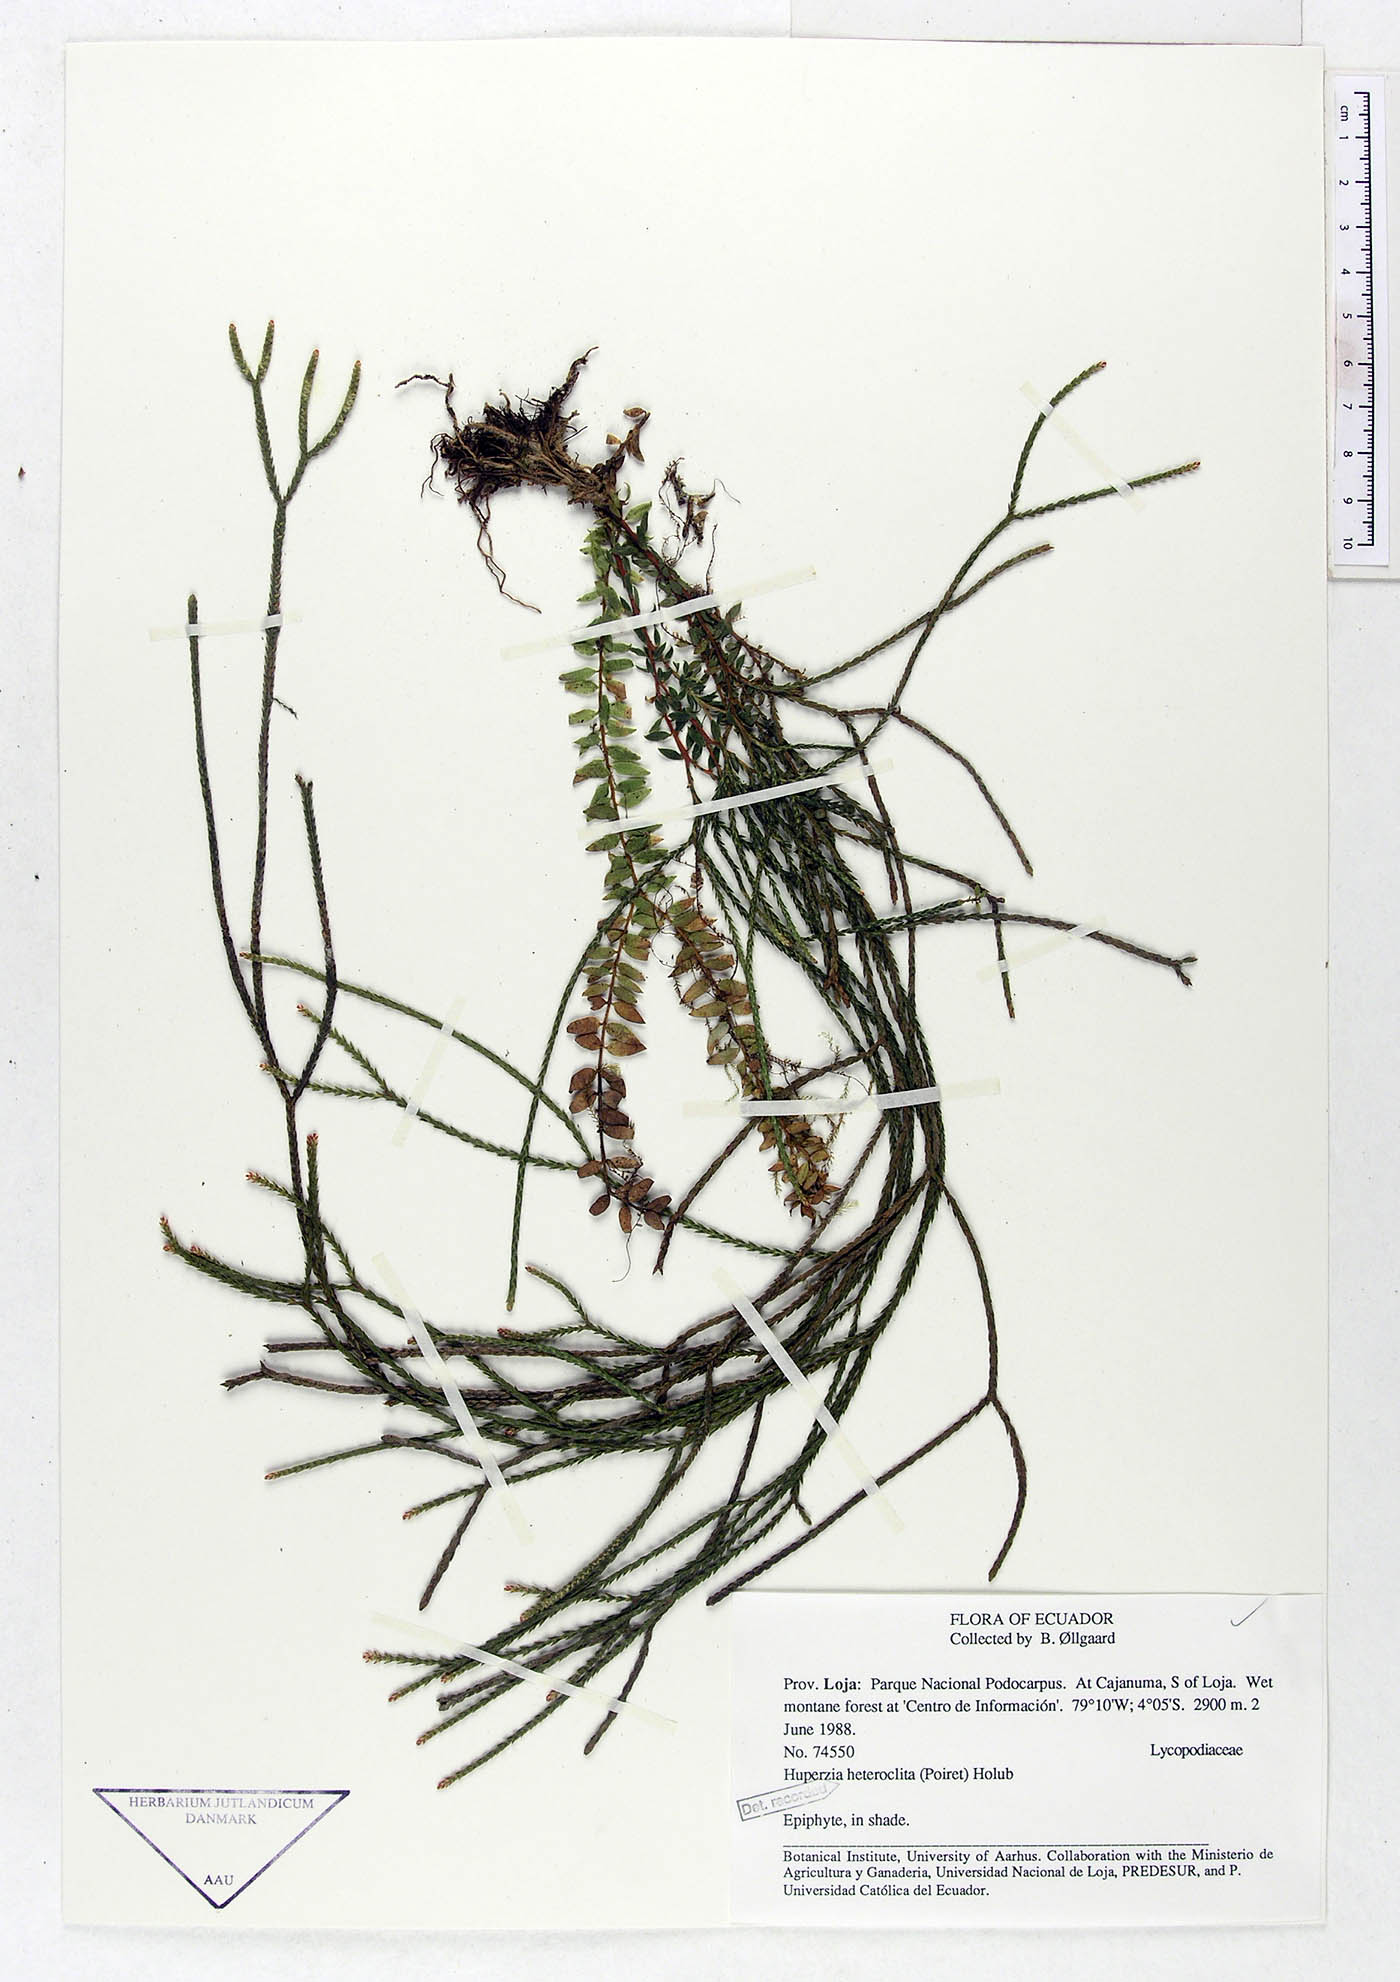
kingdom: Plantae
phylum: Tracheophyta
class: Lycopodiopsida
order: Lycopodiales
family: Lycopodiaceae
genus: Phlegmariurus
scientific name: Phlegmariurus heteroclitus
